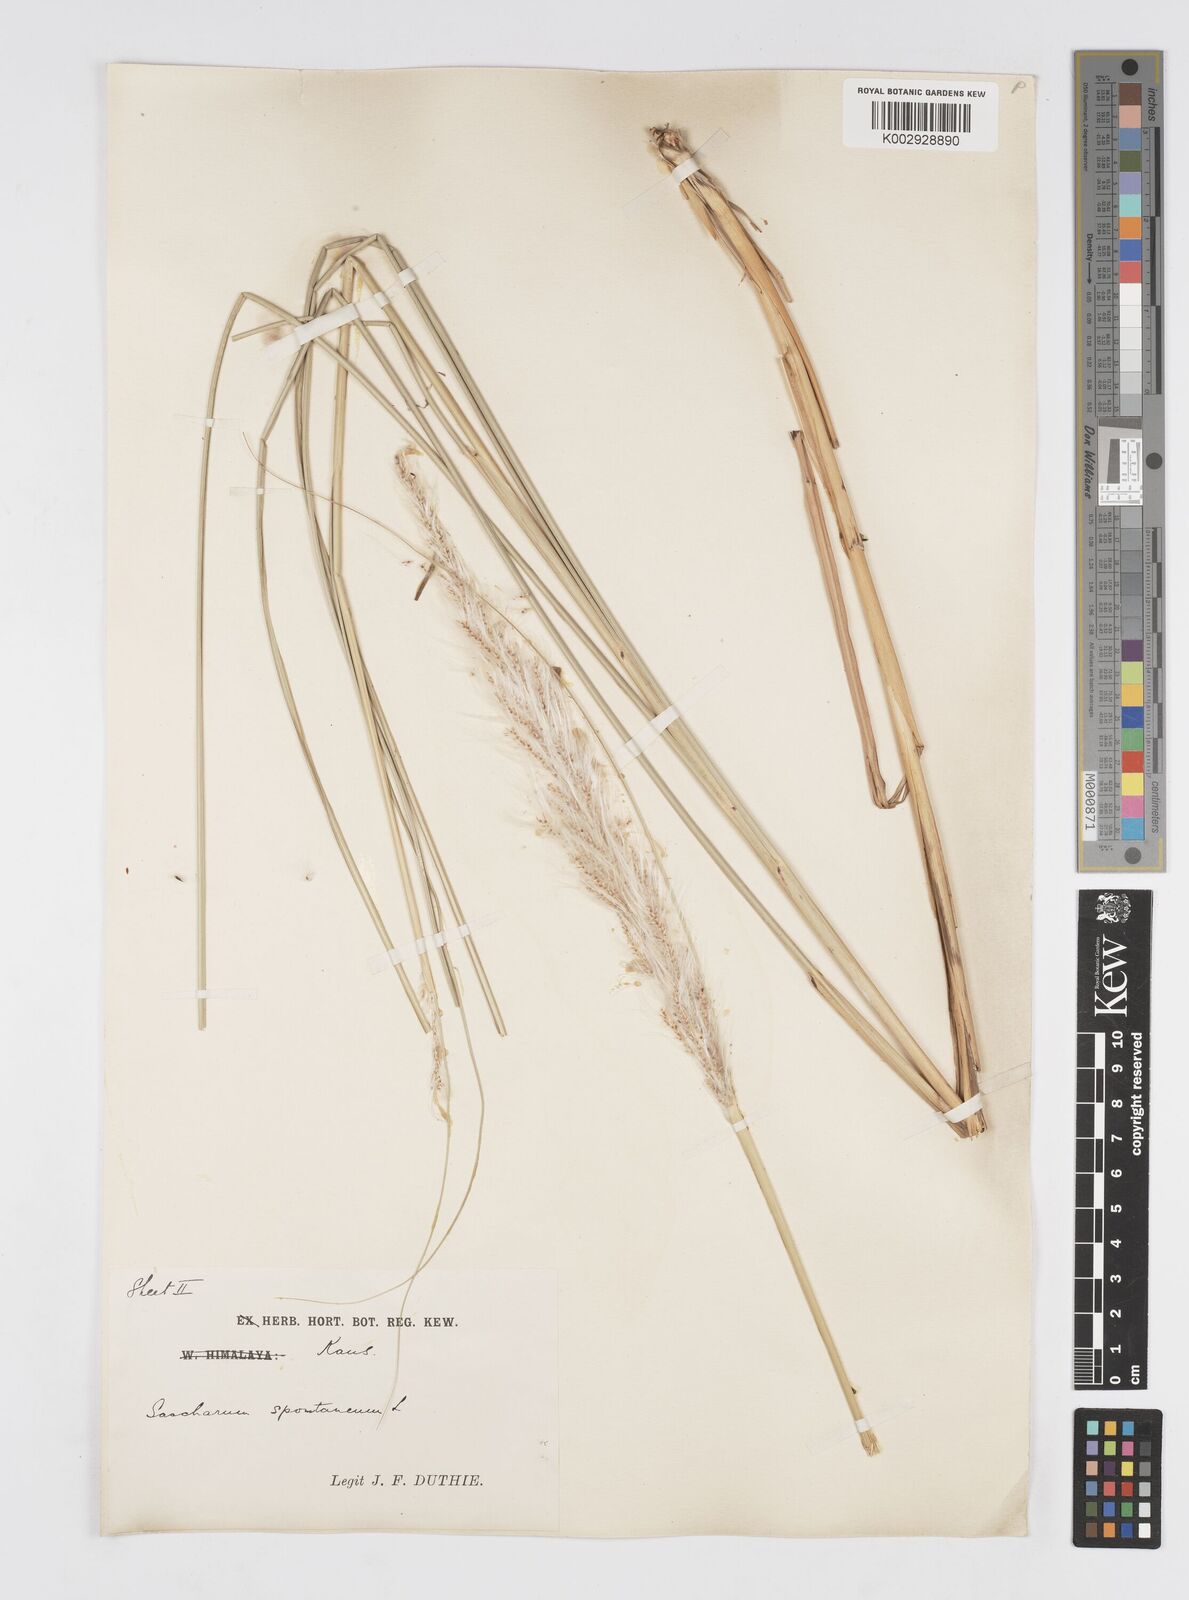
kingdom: Plantae
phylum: Tracheophyta
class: Liliopsida
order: Poales
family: Poaceae
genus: Saccharum
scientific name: Saccharum spontaneum
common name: Wild sugarcane
